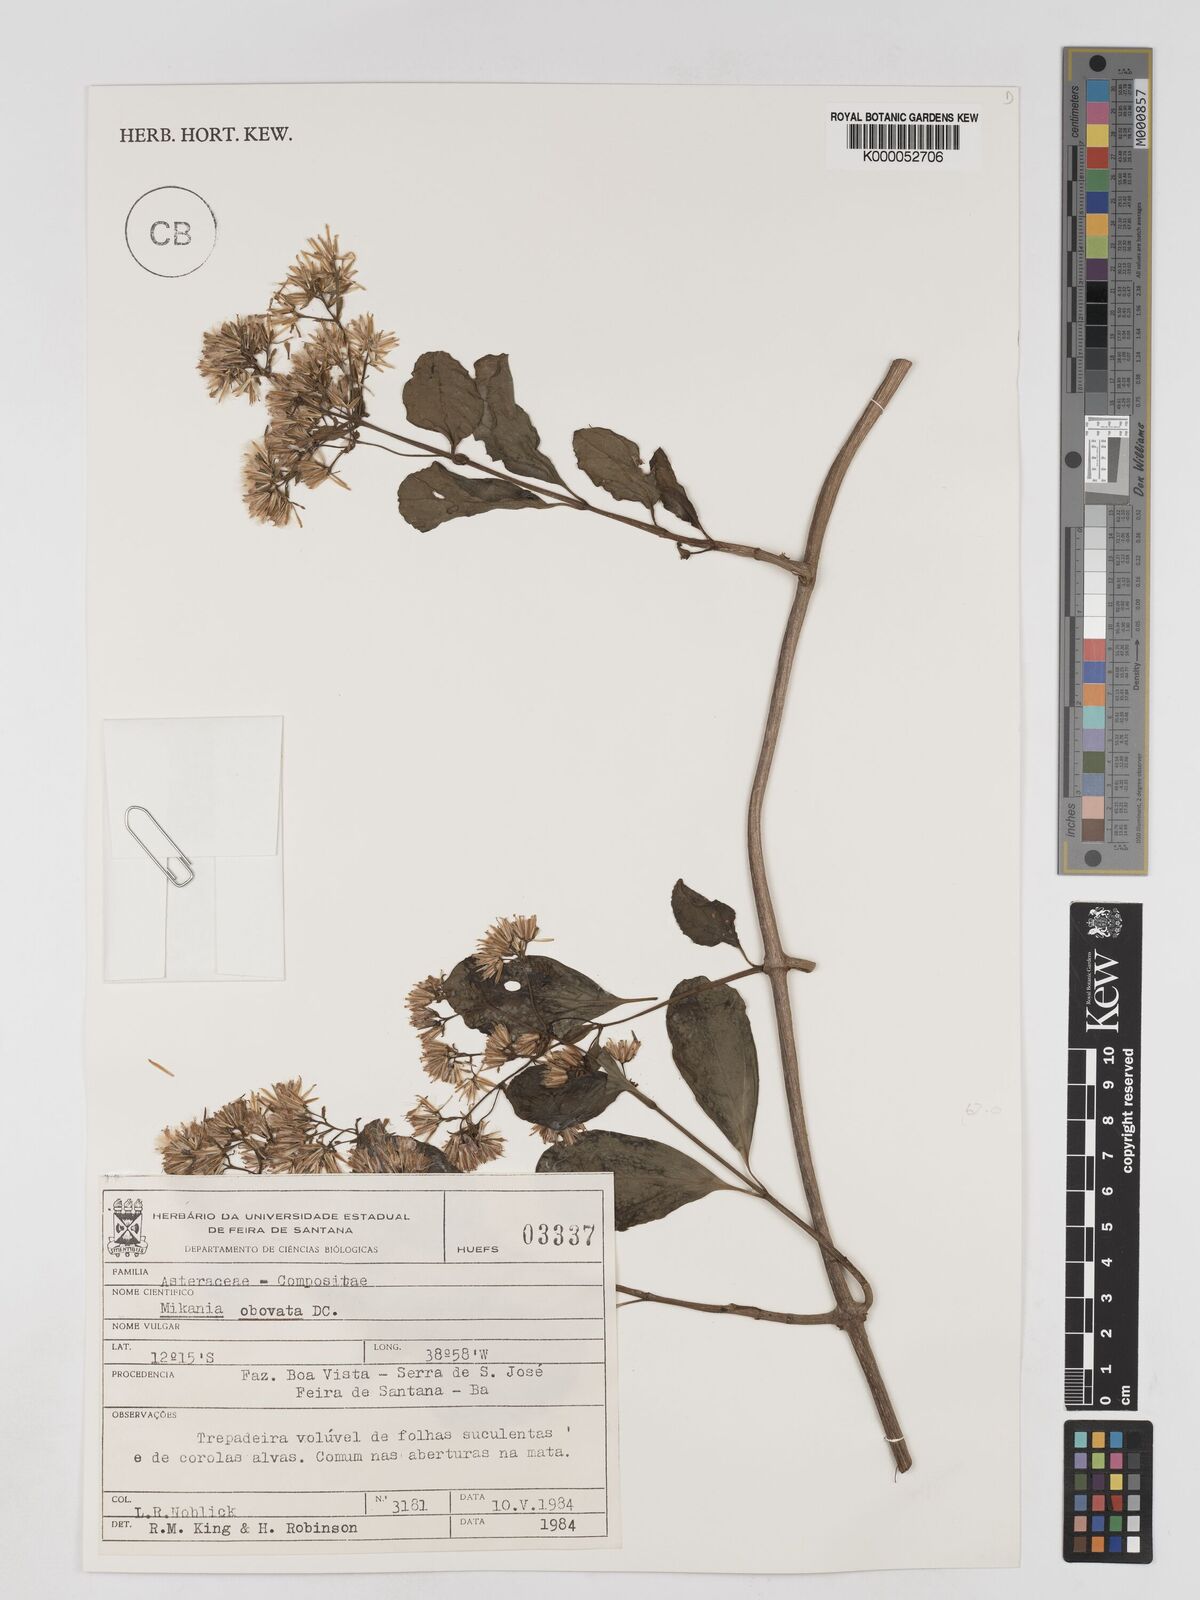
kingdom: Plantae
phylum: Tracheophyta
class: Magnoliopsida
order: Asterales
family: Asteraceae
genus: Mikania
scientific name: Mikania obovata
